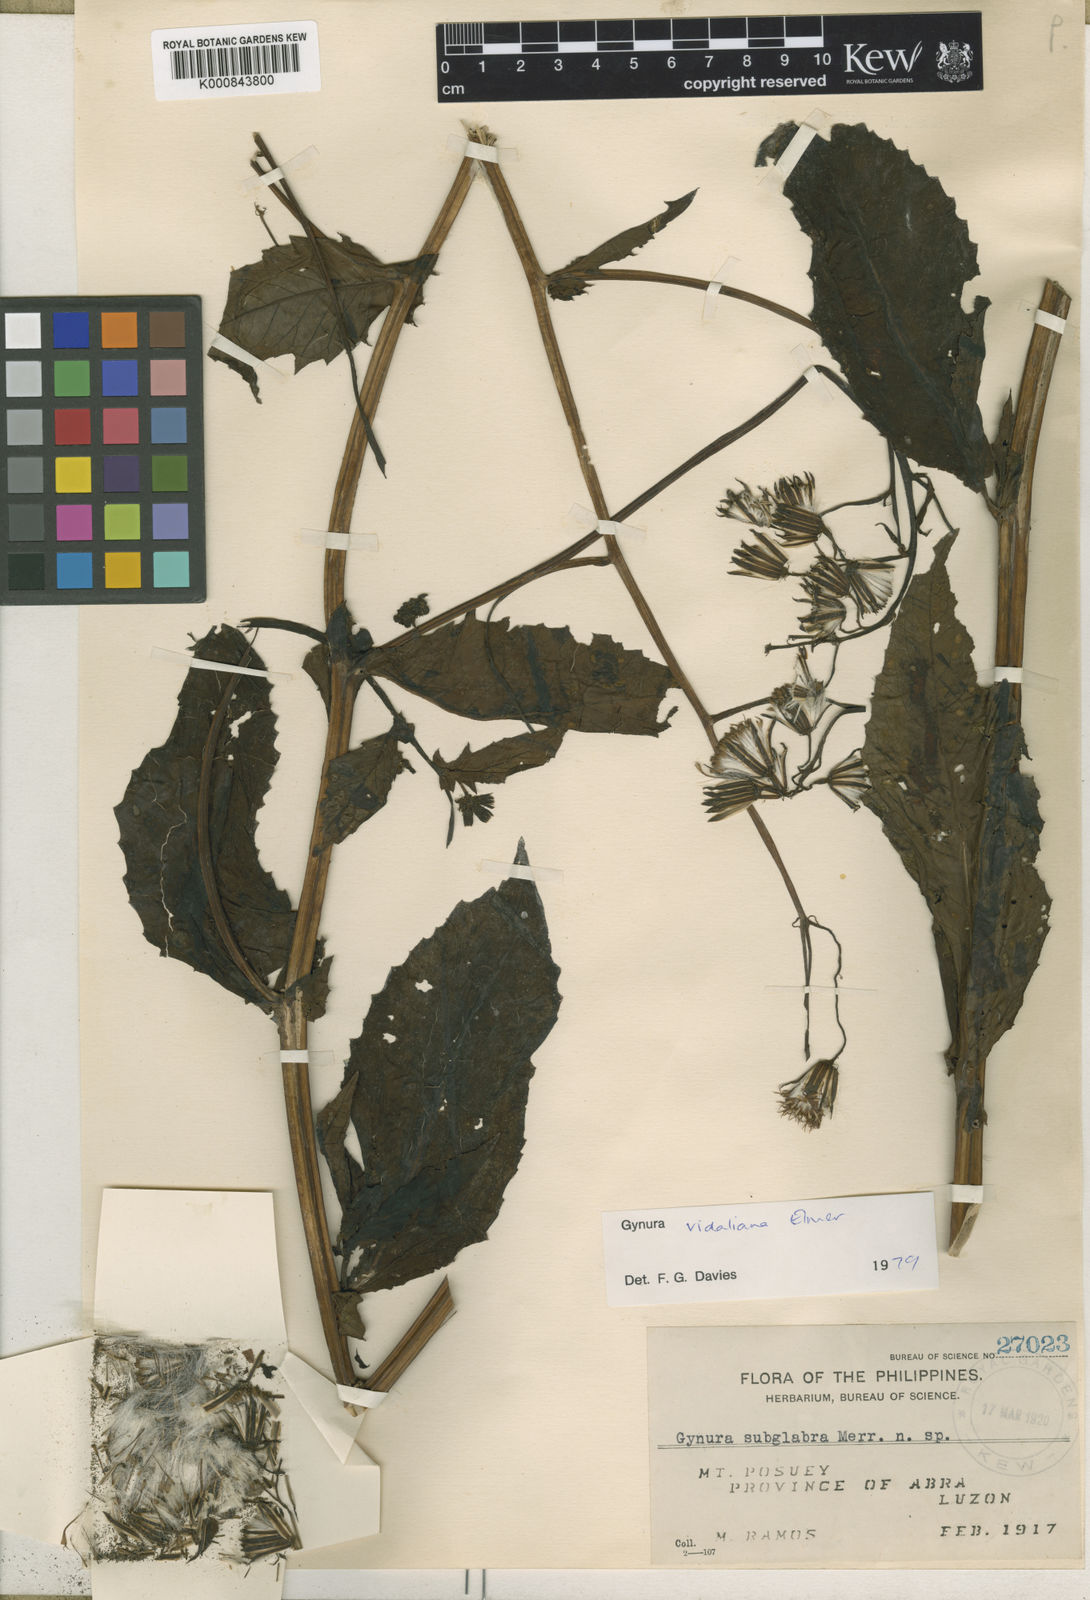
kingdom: Plantae
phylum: Tracheophyta
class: Magnoliopsida
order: Asterales
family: Asteraceae
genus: Gynura
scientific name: Gynura vidaliana
